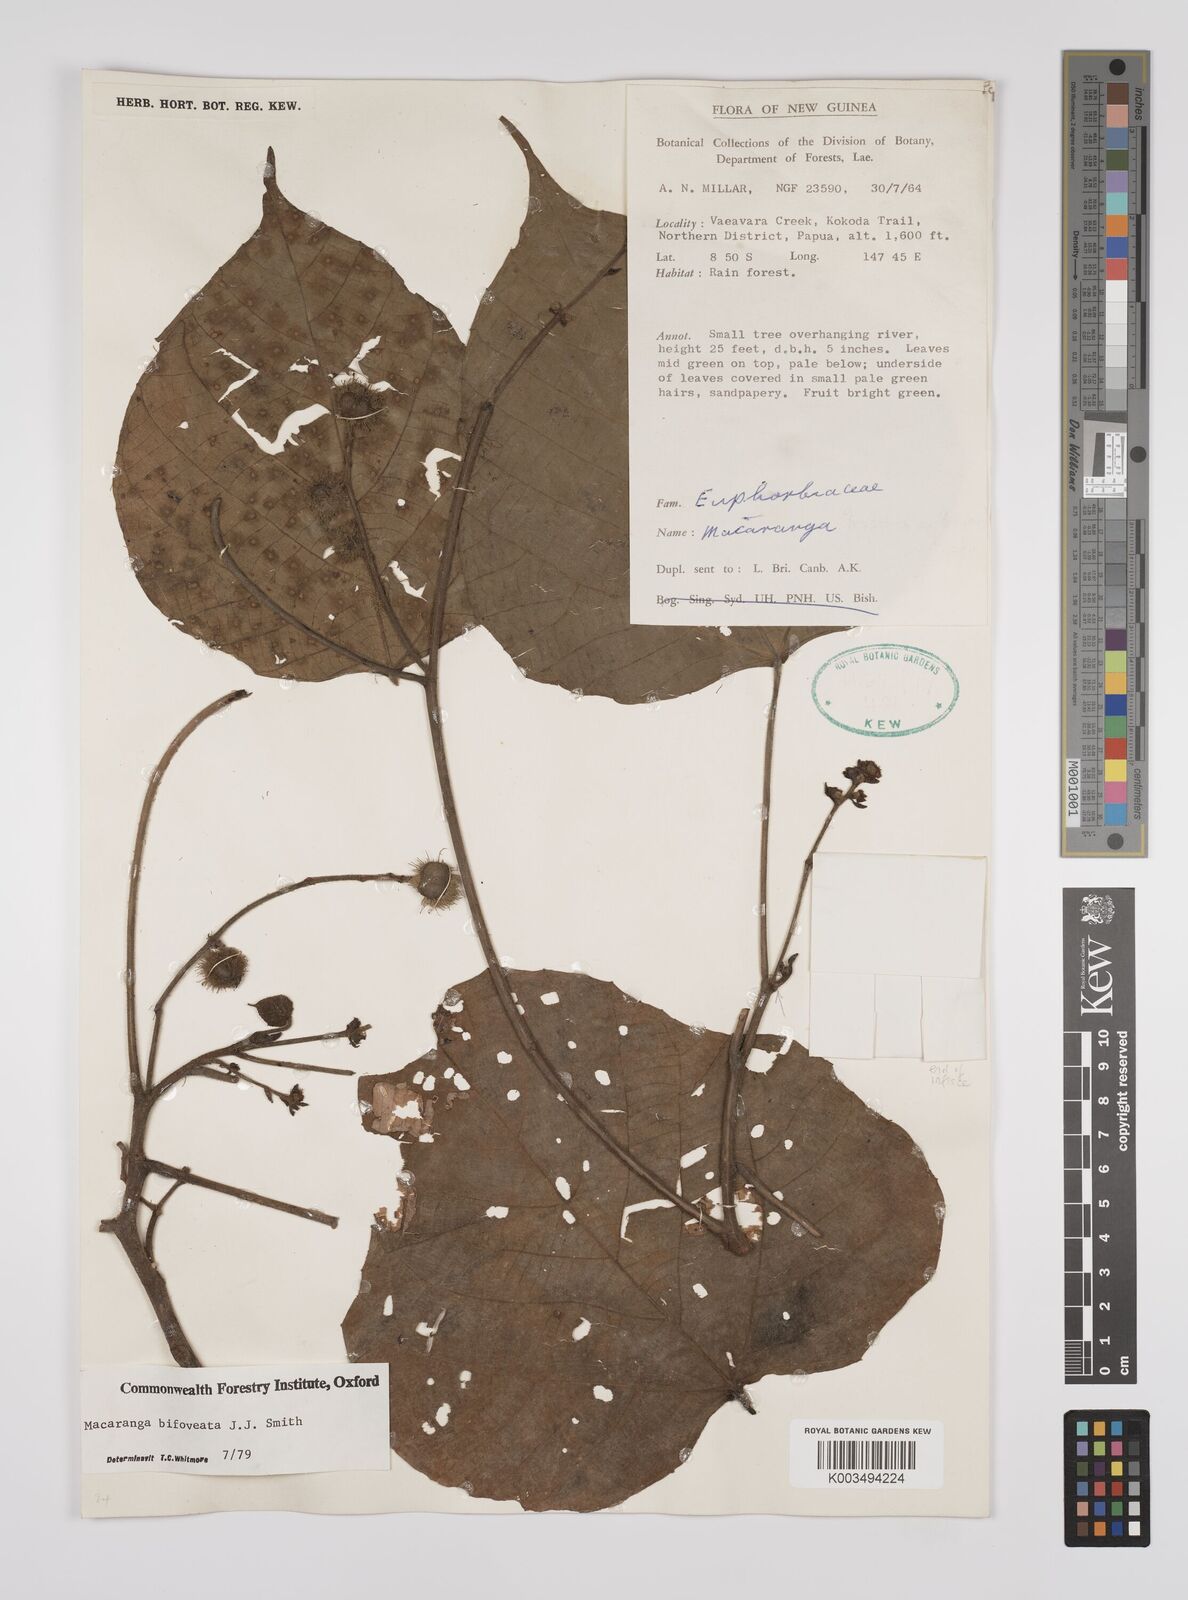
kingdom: Plantae
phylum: Tracheophyta
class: Magnoliopsida
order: Malpighiales
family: Euphorbiaceae
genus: Macaranga
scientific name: Macaranga bifoveata
